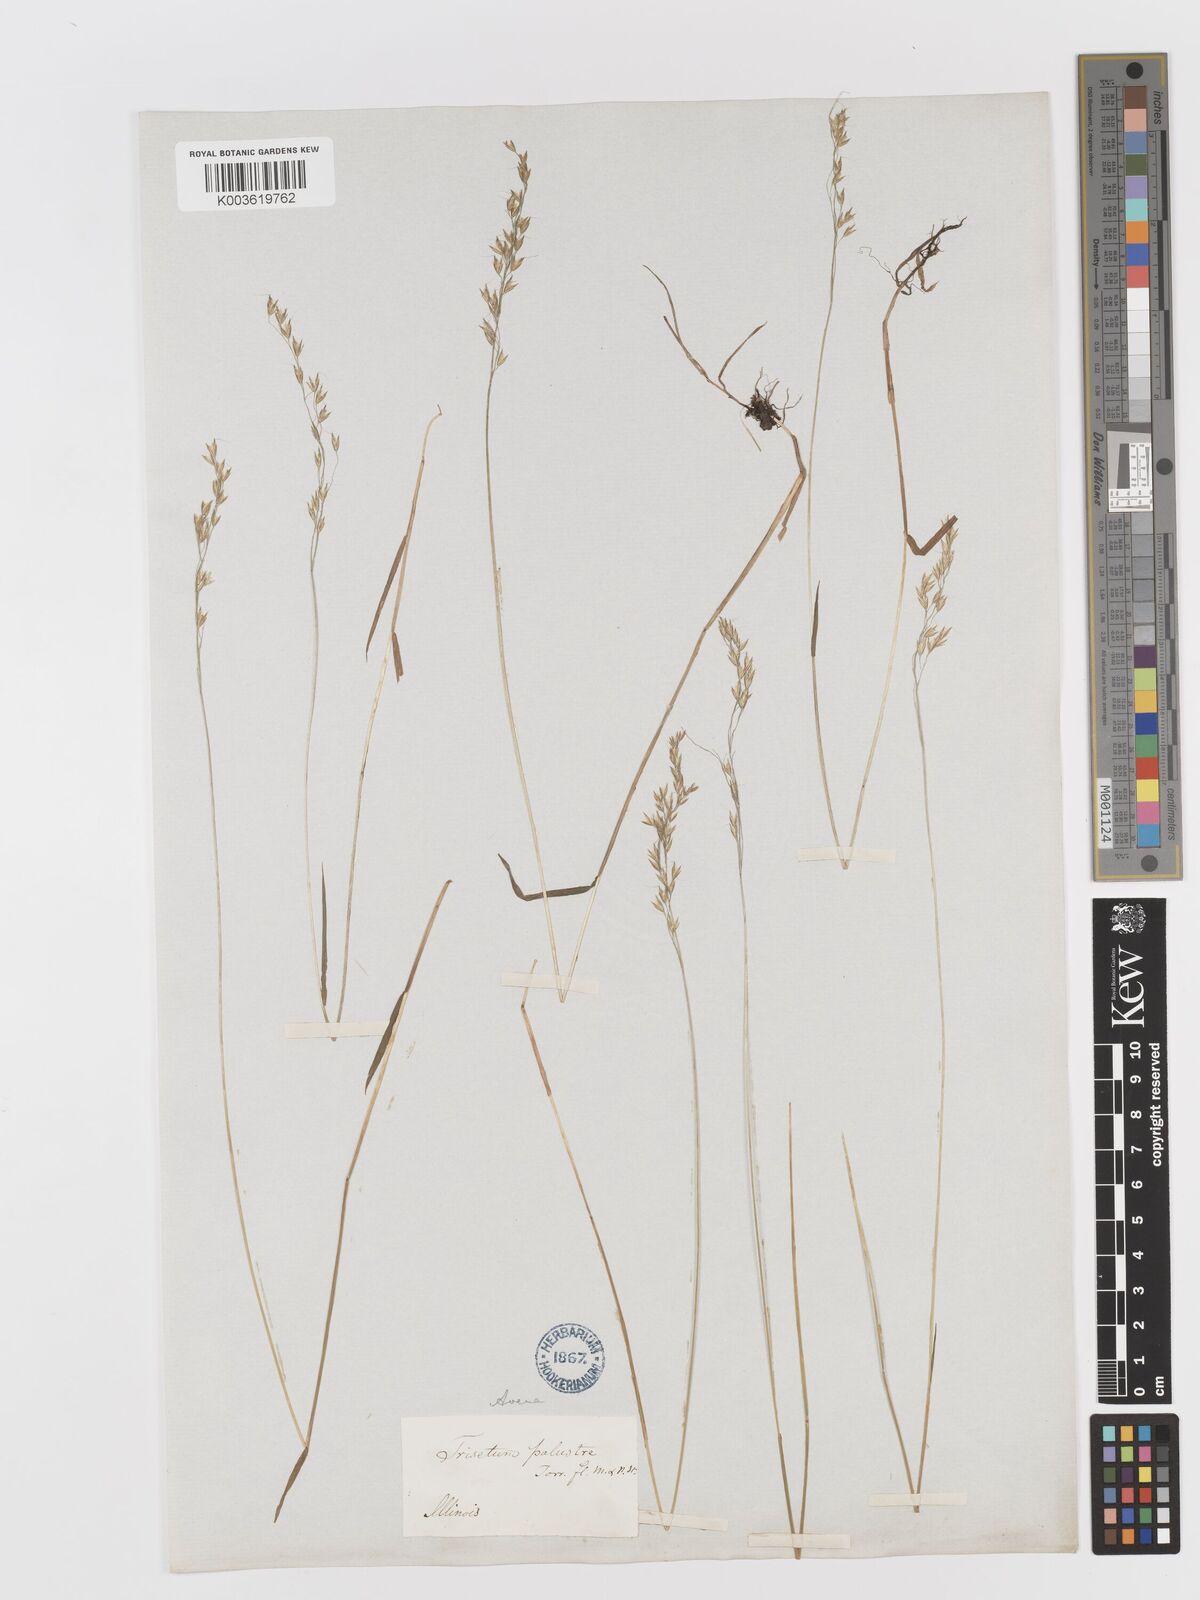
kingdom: Plantae
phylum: Tracheophyta
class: Liliopsida
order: Poales
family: Poaceae
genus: Sphenopholis
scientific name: Sphenopholis pensylvanica
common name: Swamp oats
